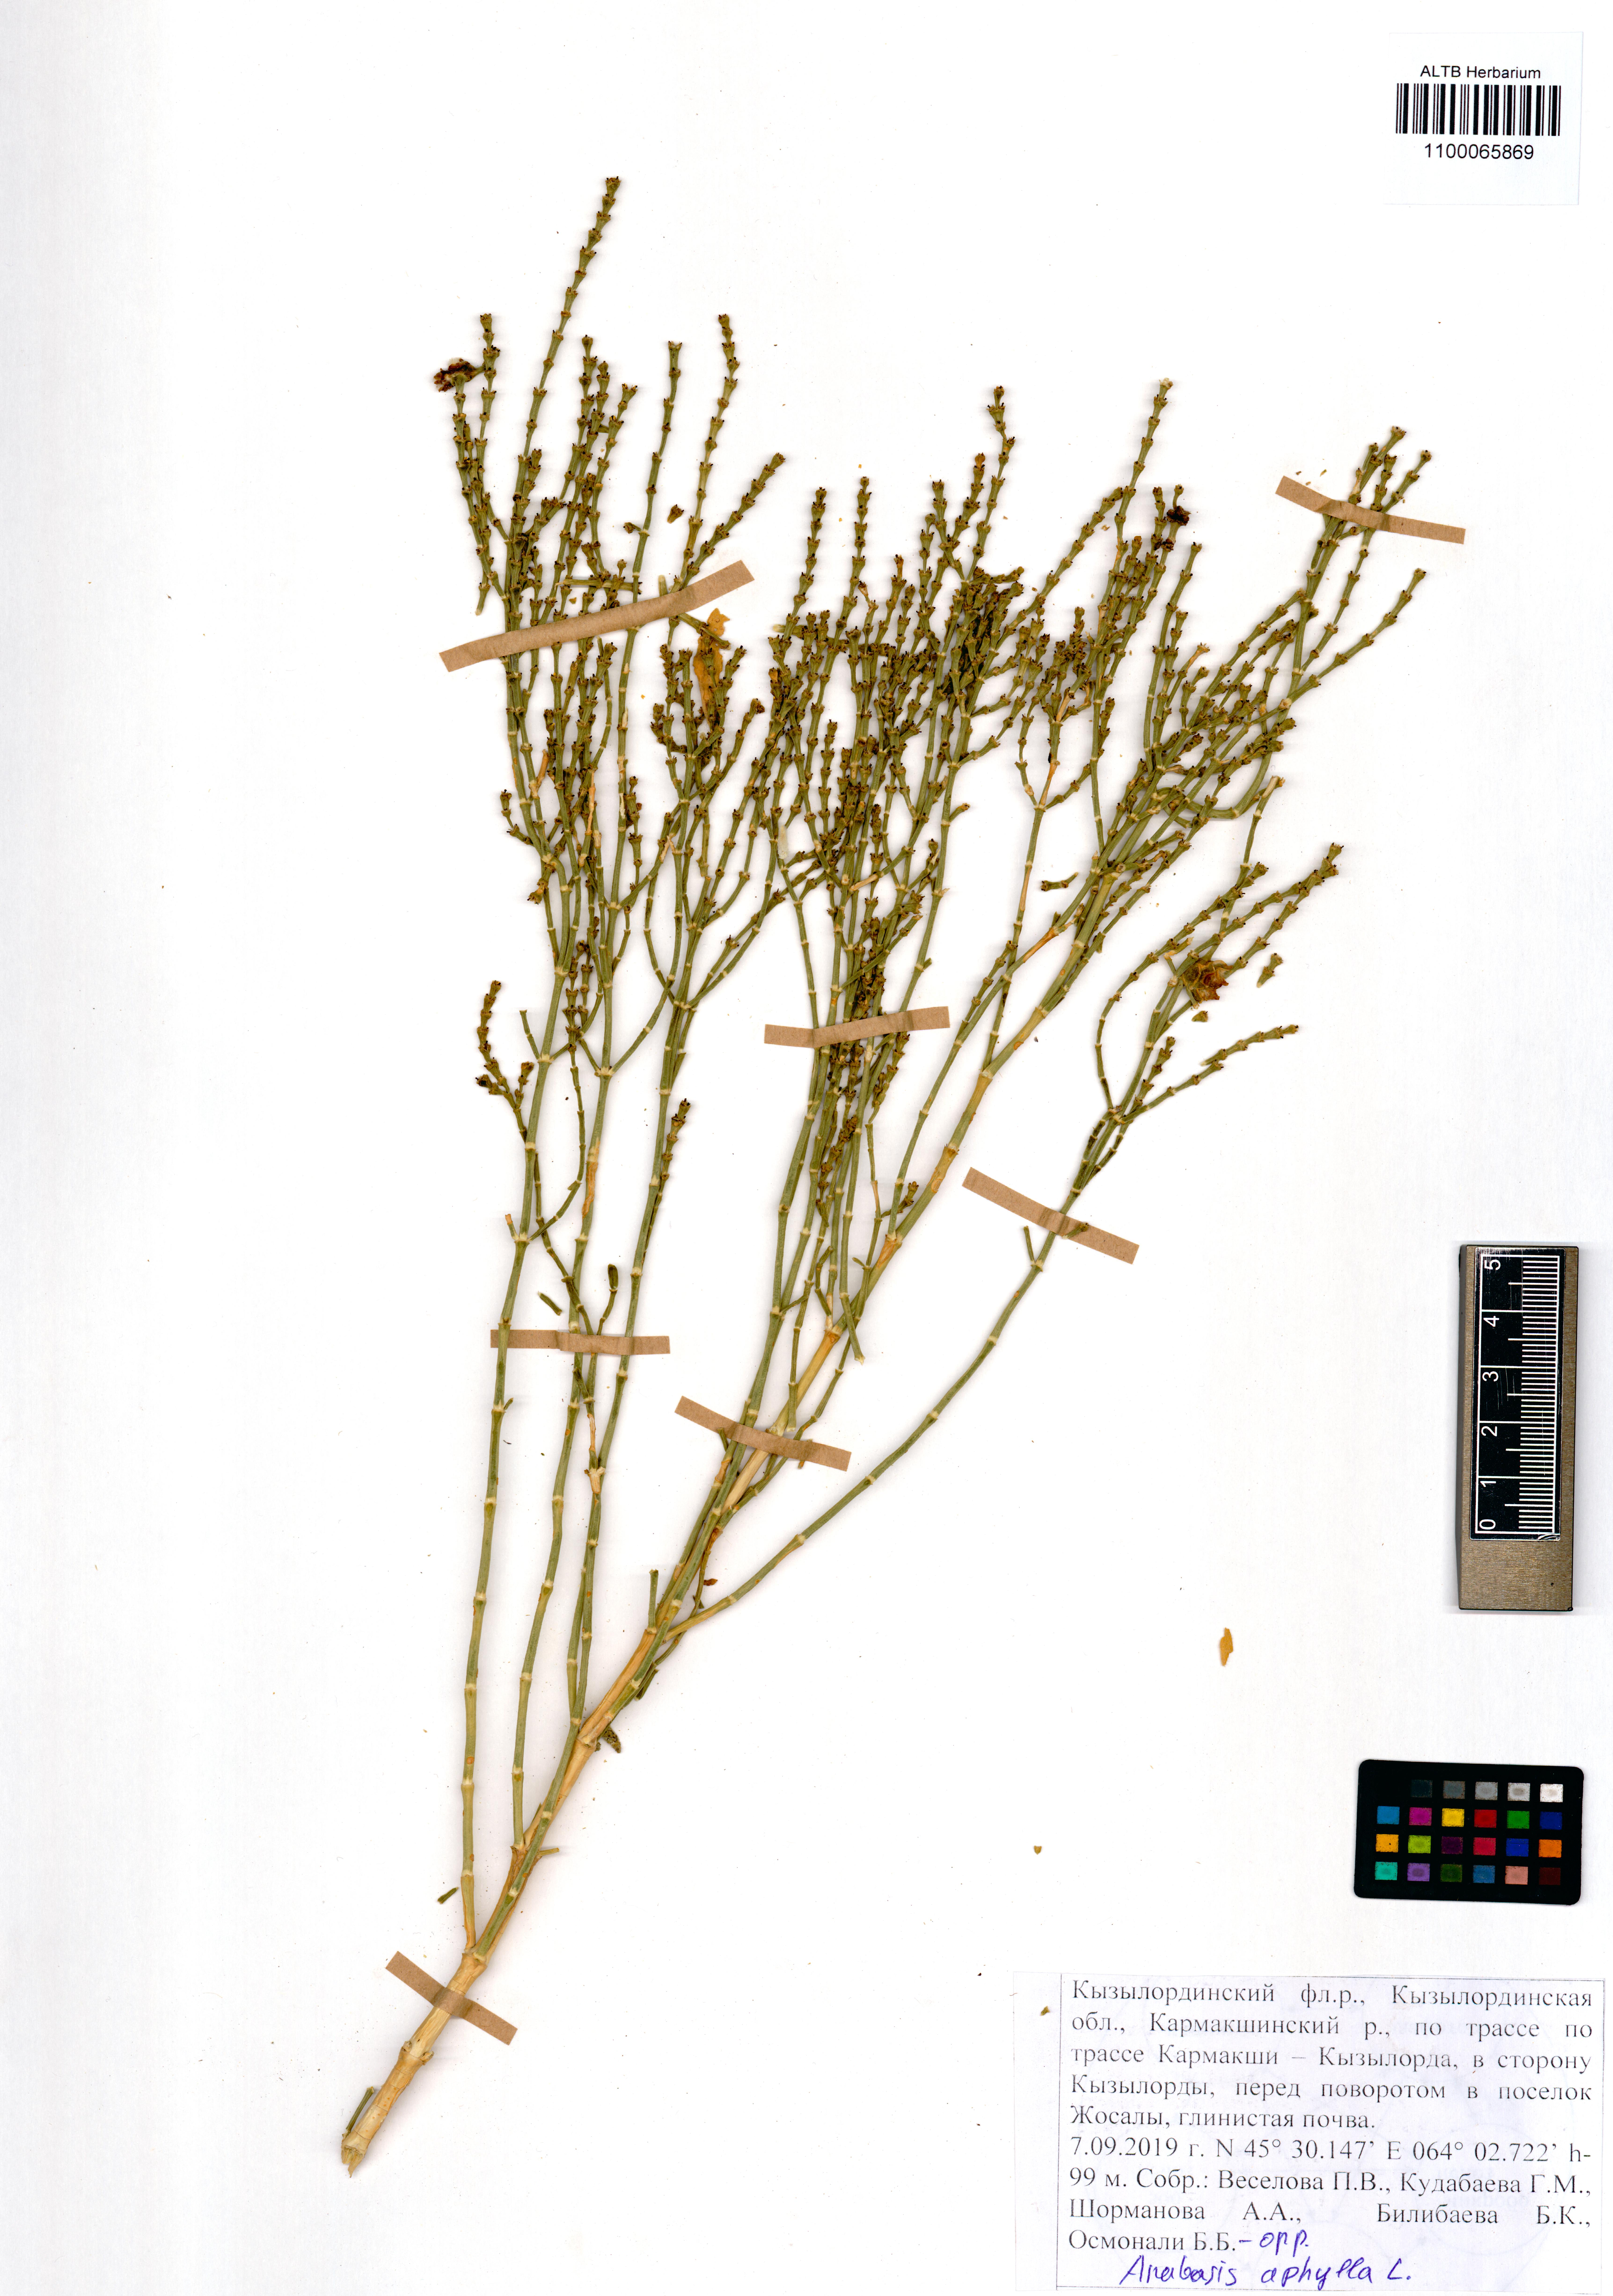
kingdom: Plantae
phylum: Tracheophyta
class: Magnoliopsida
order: Caryophyllales
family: Amaranthaceae
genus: Anabasis
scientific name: Anabasis aphylla
